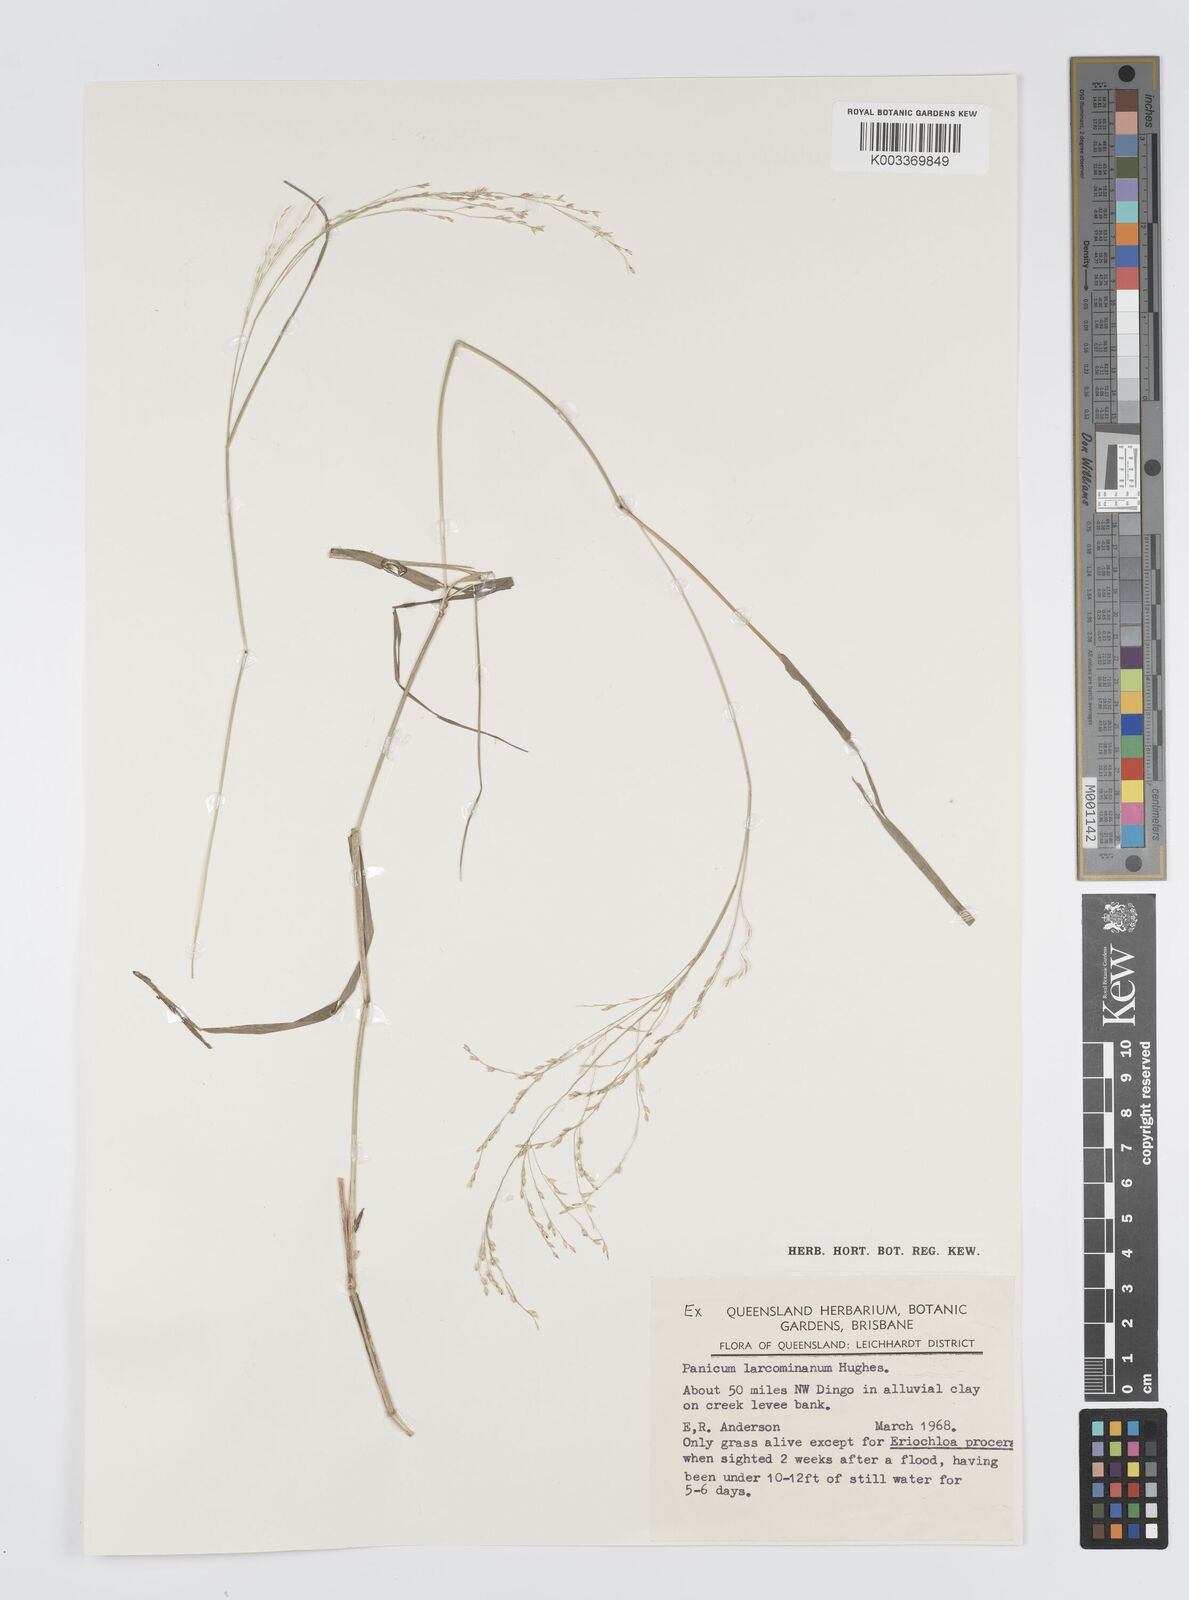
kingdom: Plantae
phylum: Tracheophyta
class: Liliopsida
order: Poales
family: Poaceae
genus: Panicum
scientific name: Panicum larcomianum
